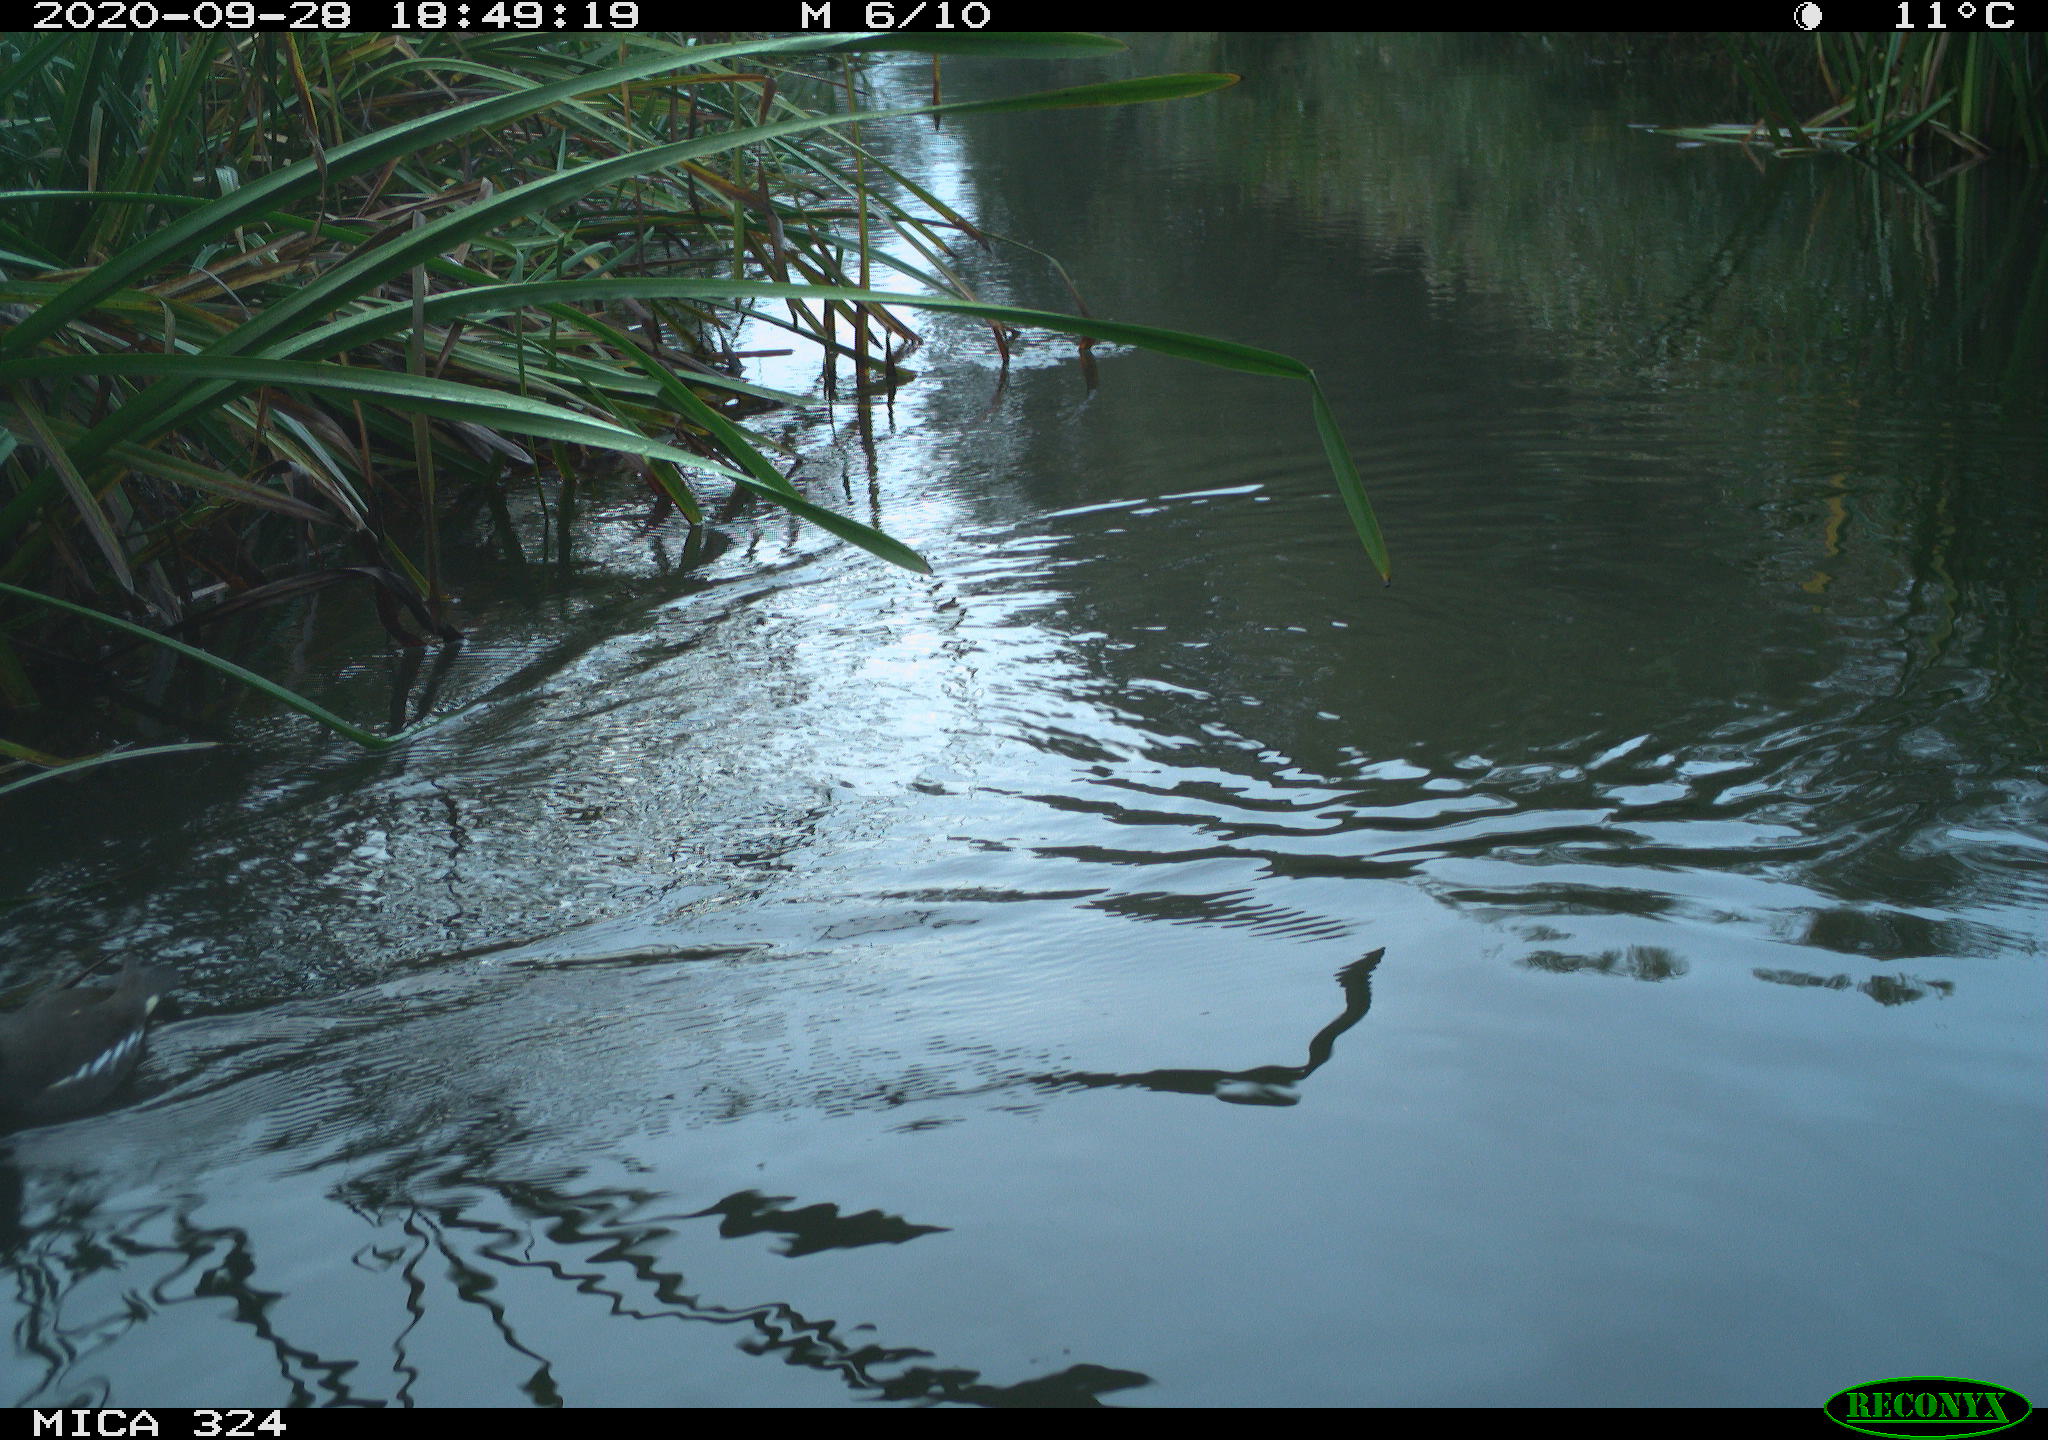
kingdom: Animalia
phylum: Chordata
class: Aves
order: Gruiformes
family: Rallidae
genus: Gallinula
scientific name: Gallinula chloropus
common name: Common moorhen
